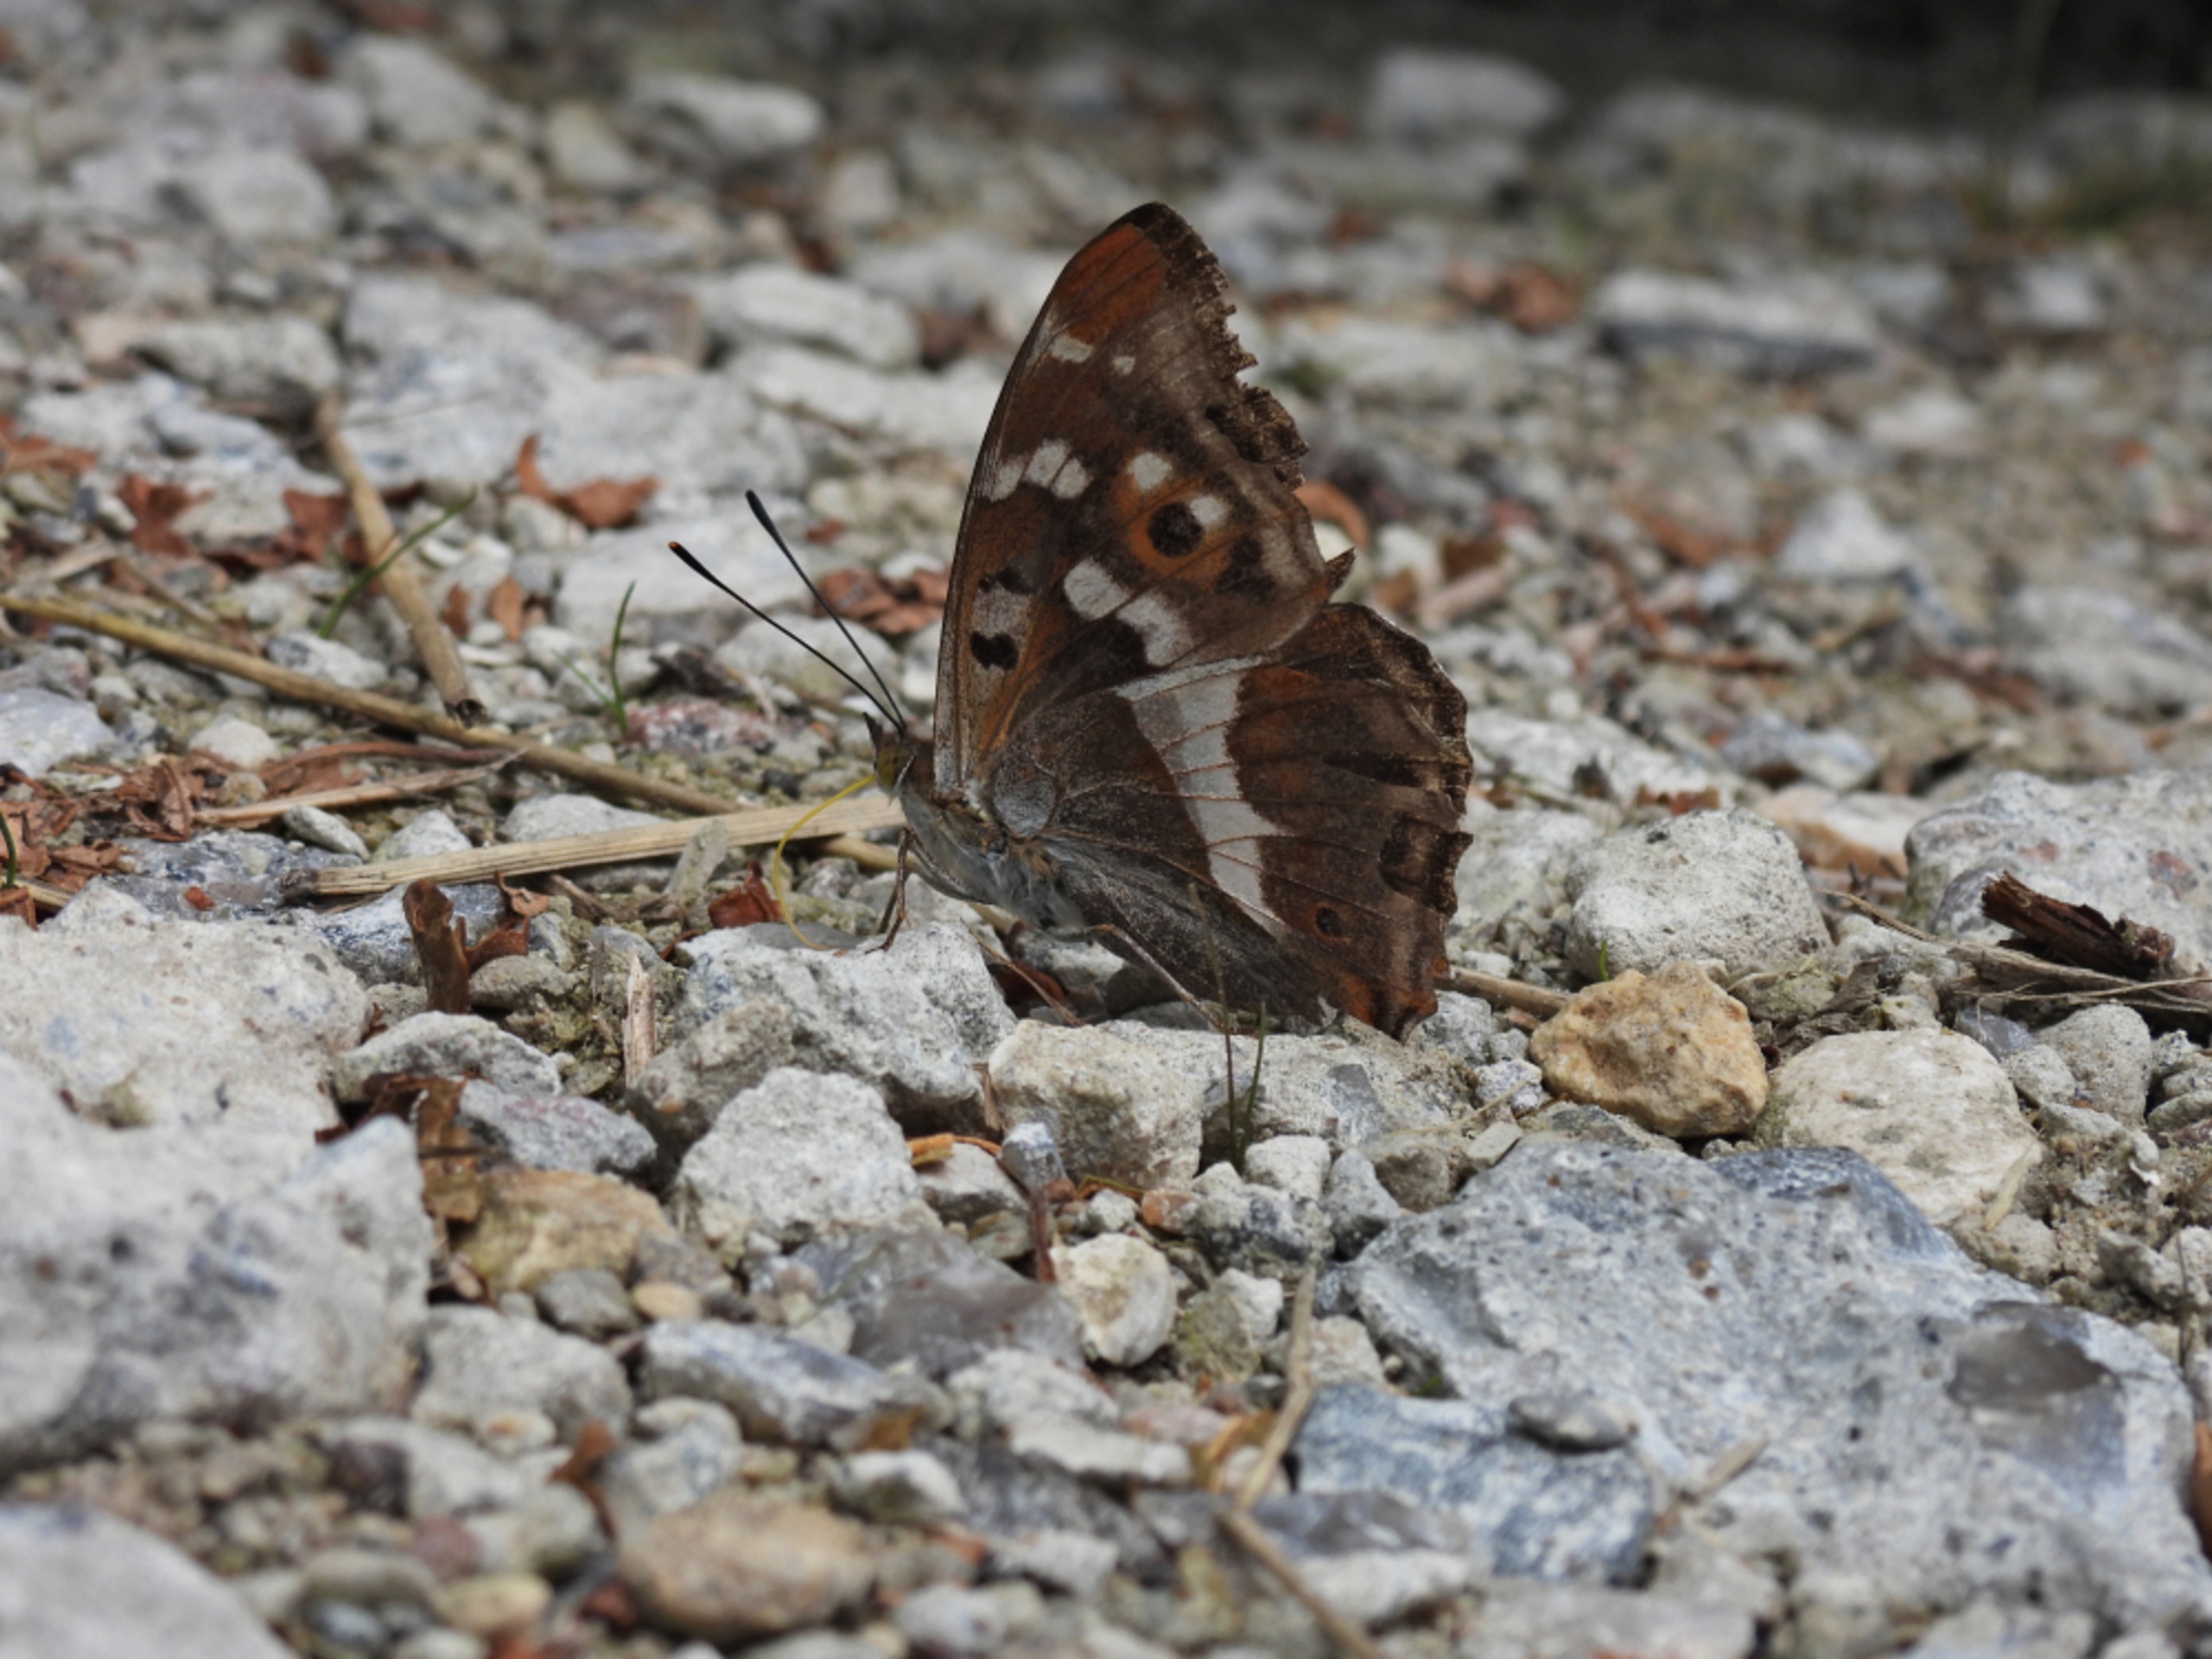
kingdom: Animalia
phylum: Arthropoda
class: Insecta
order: Lepidoptera
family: Nymphalidae
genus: Apatura
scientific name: Apatura iris
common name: Iris
